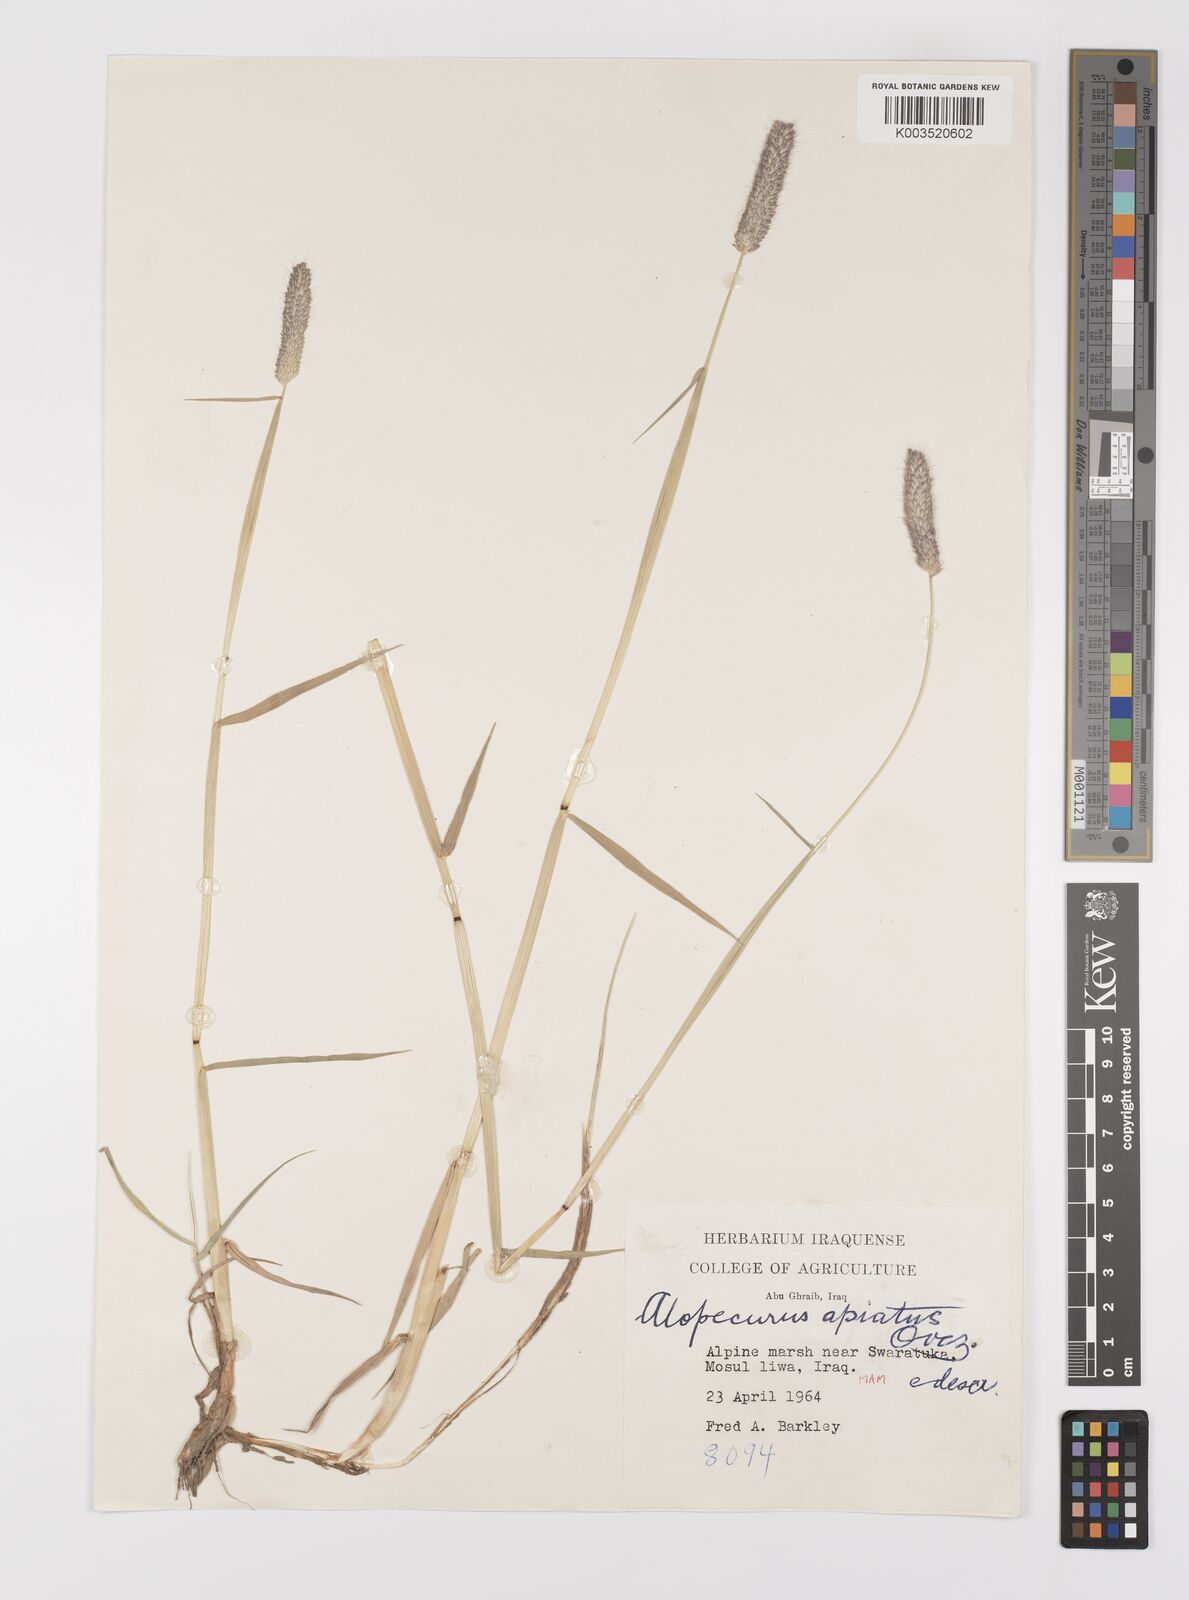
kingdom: Plantae
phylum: Tracheophyta
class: Liliopsida
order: Poales
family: Poaceae
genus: Alopecurus
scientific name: Alopecurus apiatus
